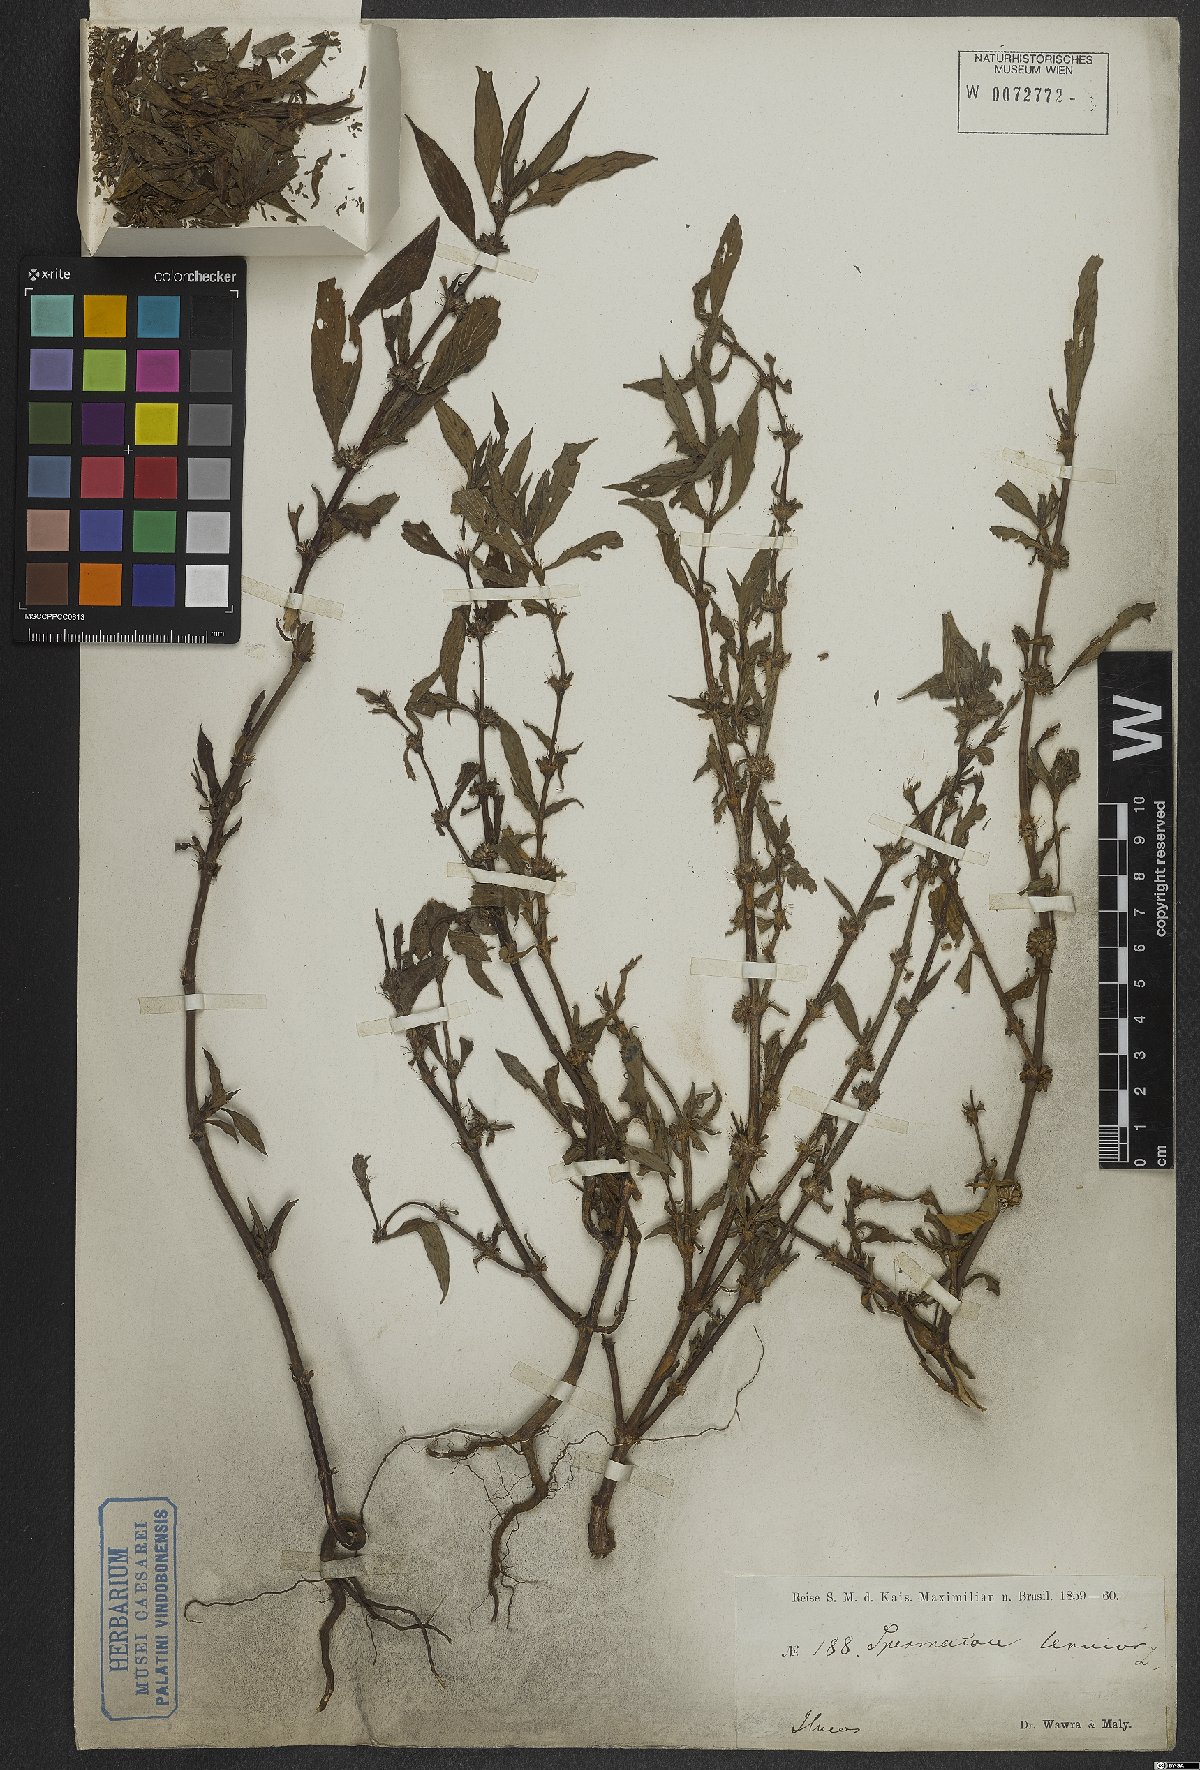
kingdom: Plantae
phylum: Tracheophyta
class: Magnoliopsida
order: Gentianales
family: Rubiaceae
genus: Spermacoce
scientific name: Spermacoce tenuior
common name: River false buttonweed
